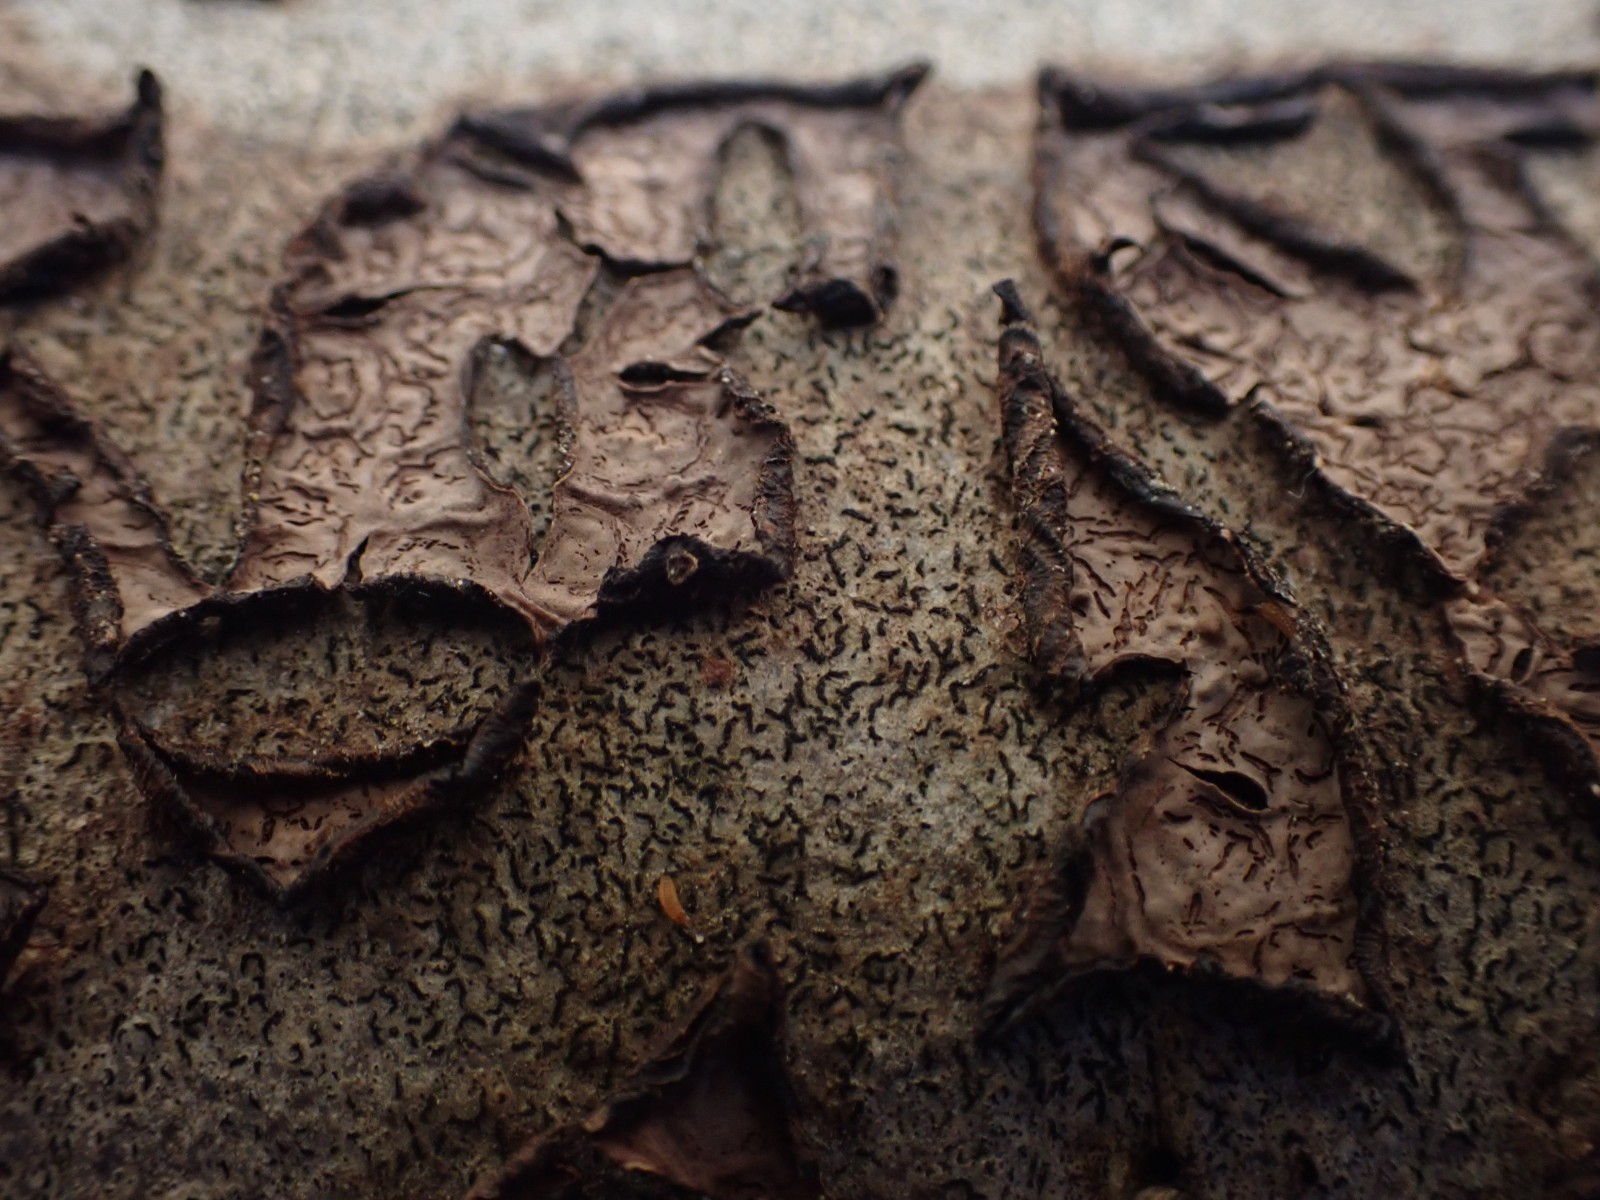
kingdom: Fungi
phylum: Basidiomycota
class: Agaricomycetes
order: Corticiales
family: Corticiaceae
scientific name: Corticiaceae
